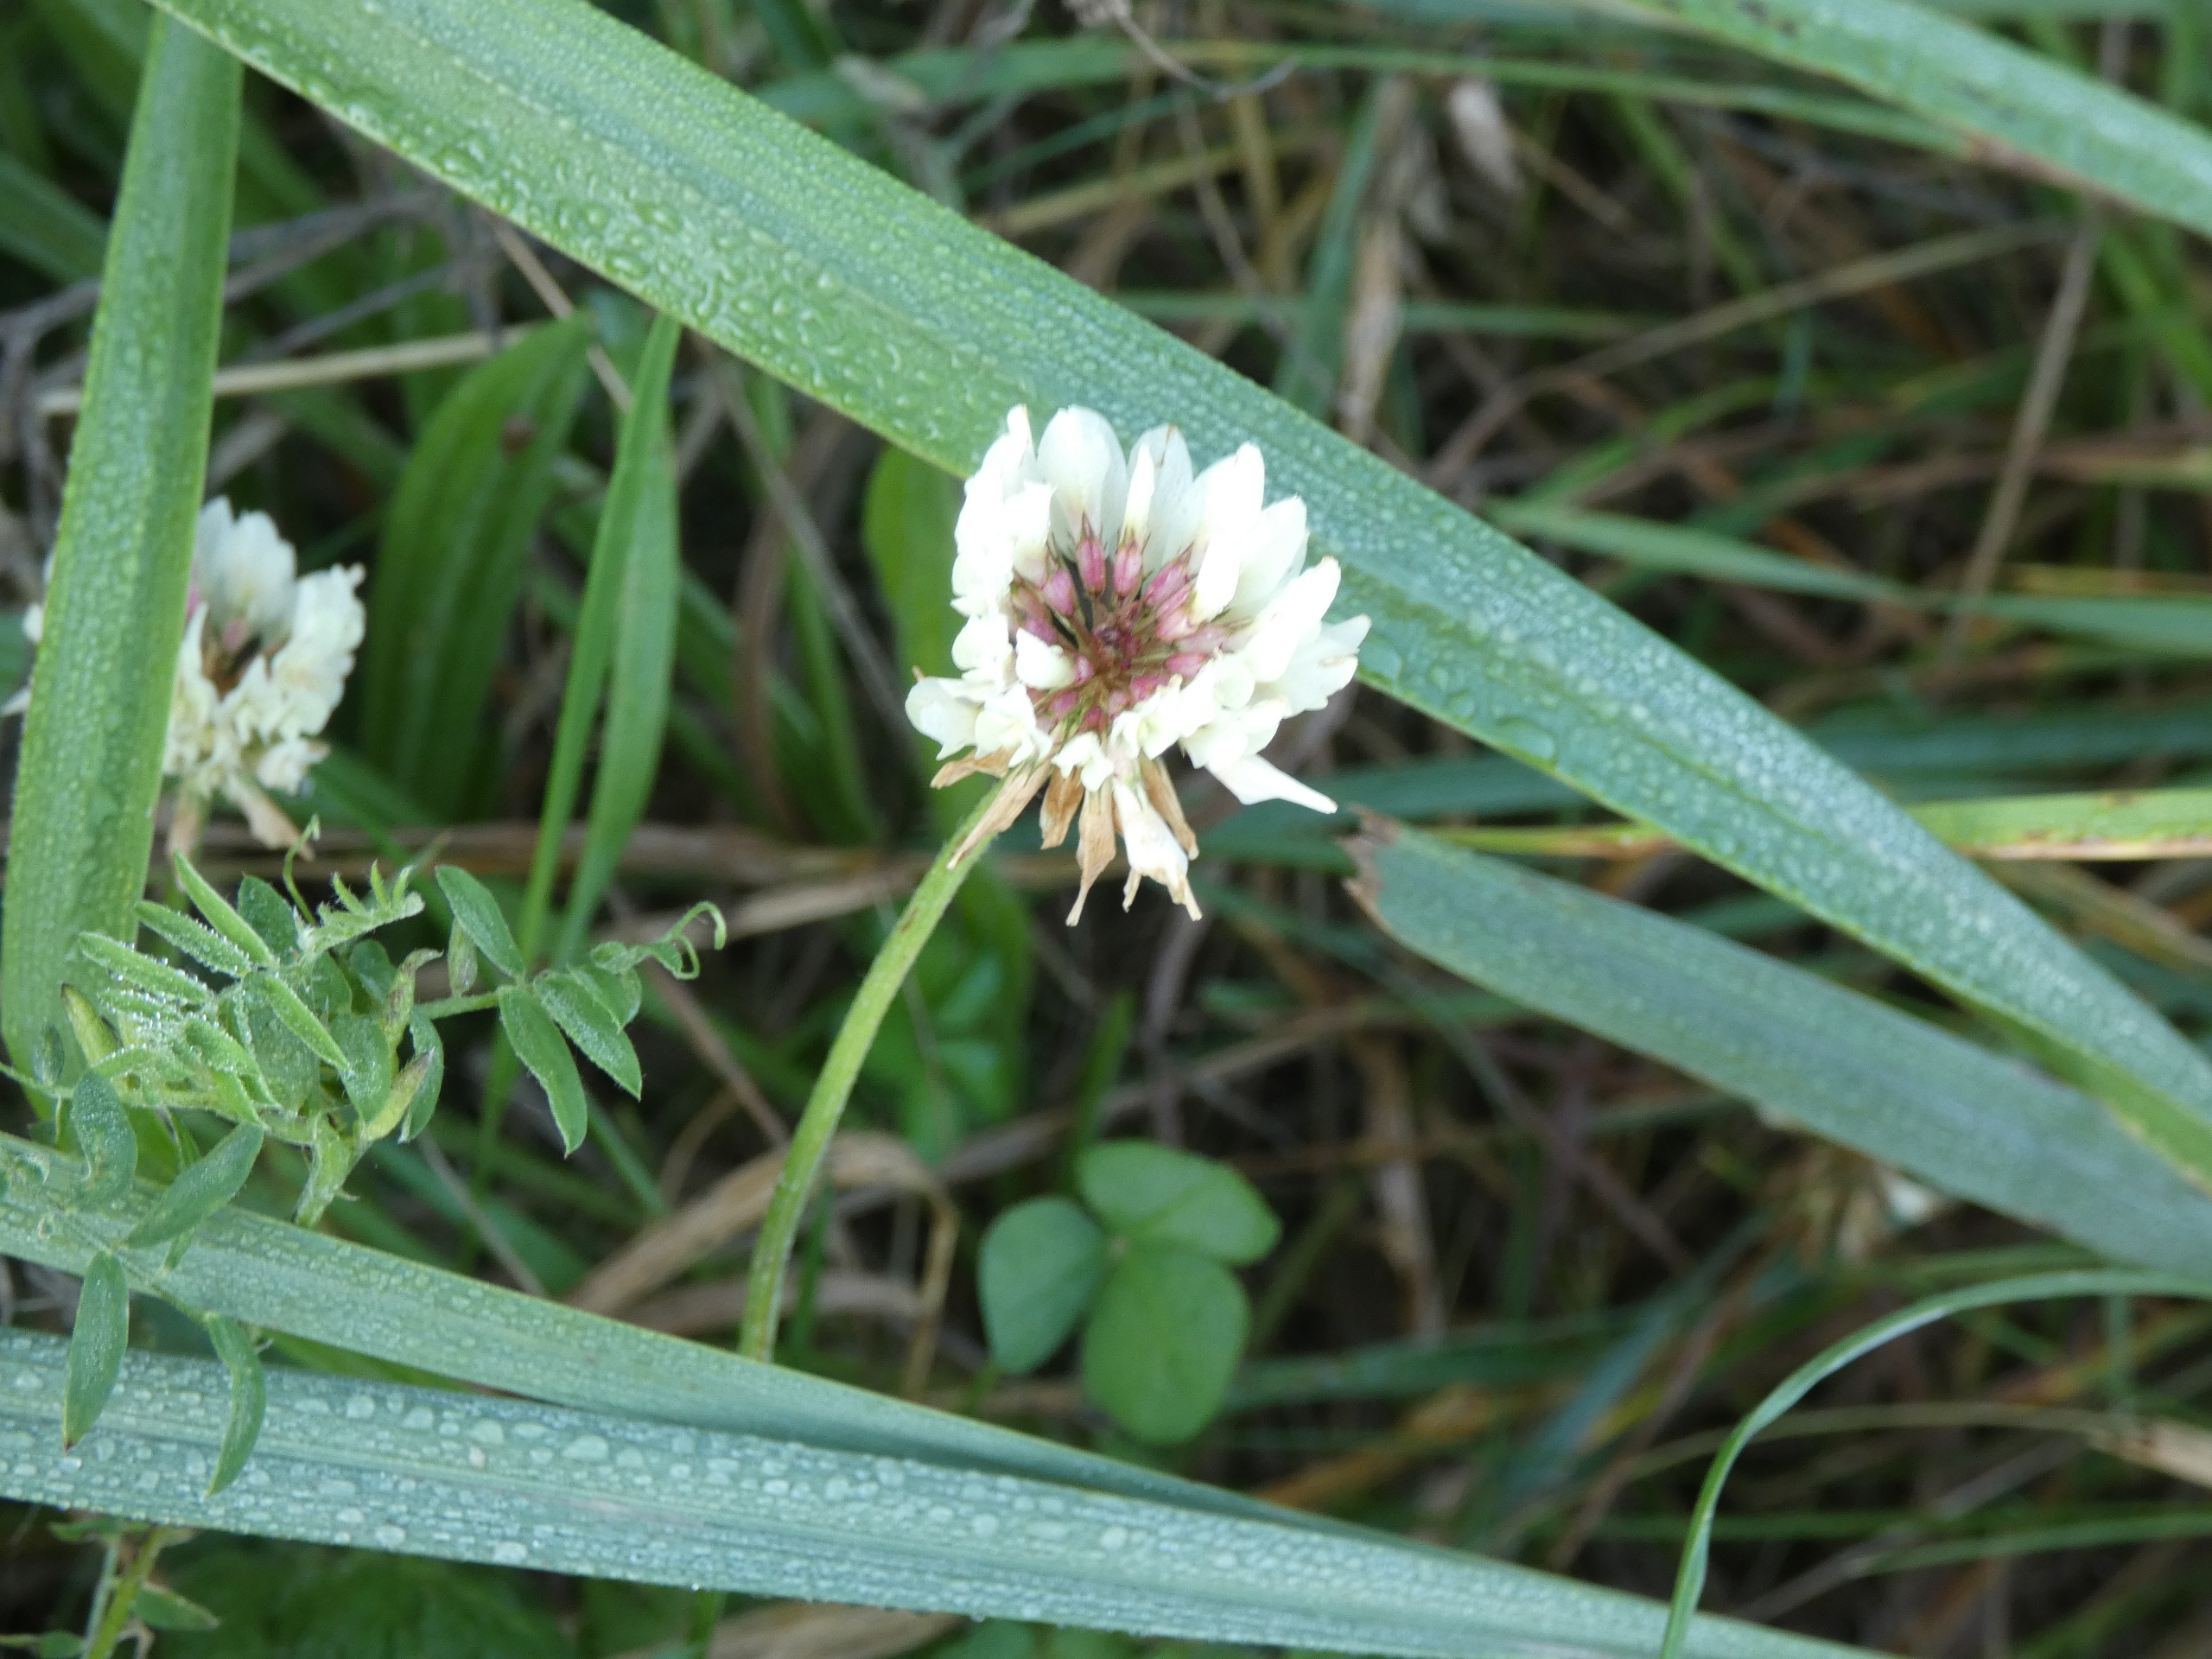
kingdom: Plantae
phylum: Tracheophyta
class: Magnoliopsida
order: Fabales
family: Fabaceae
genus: Trifolium
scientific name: Trifolium repens
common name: Hvid-kløver
